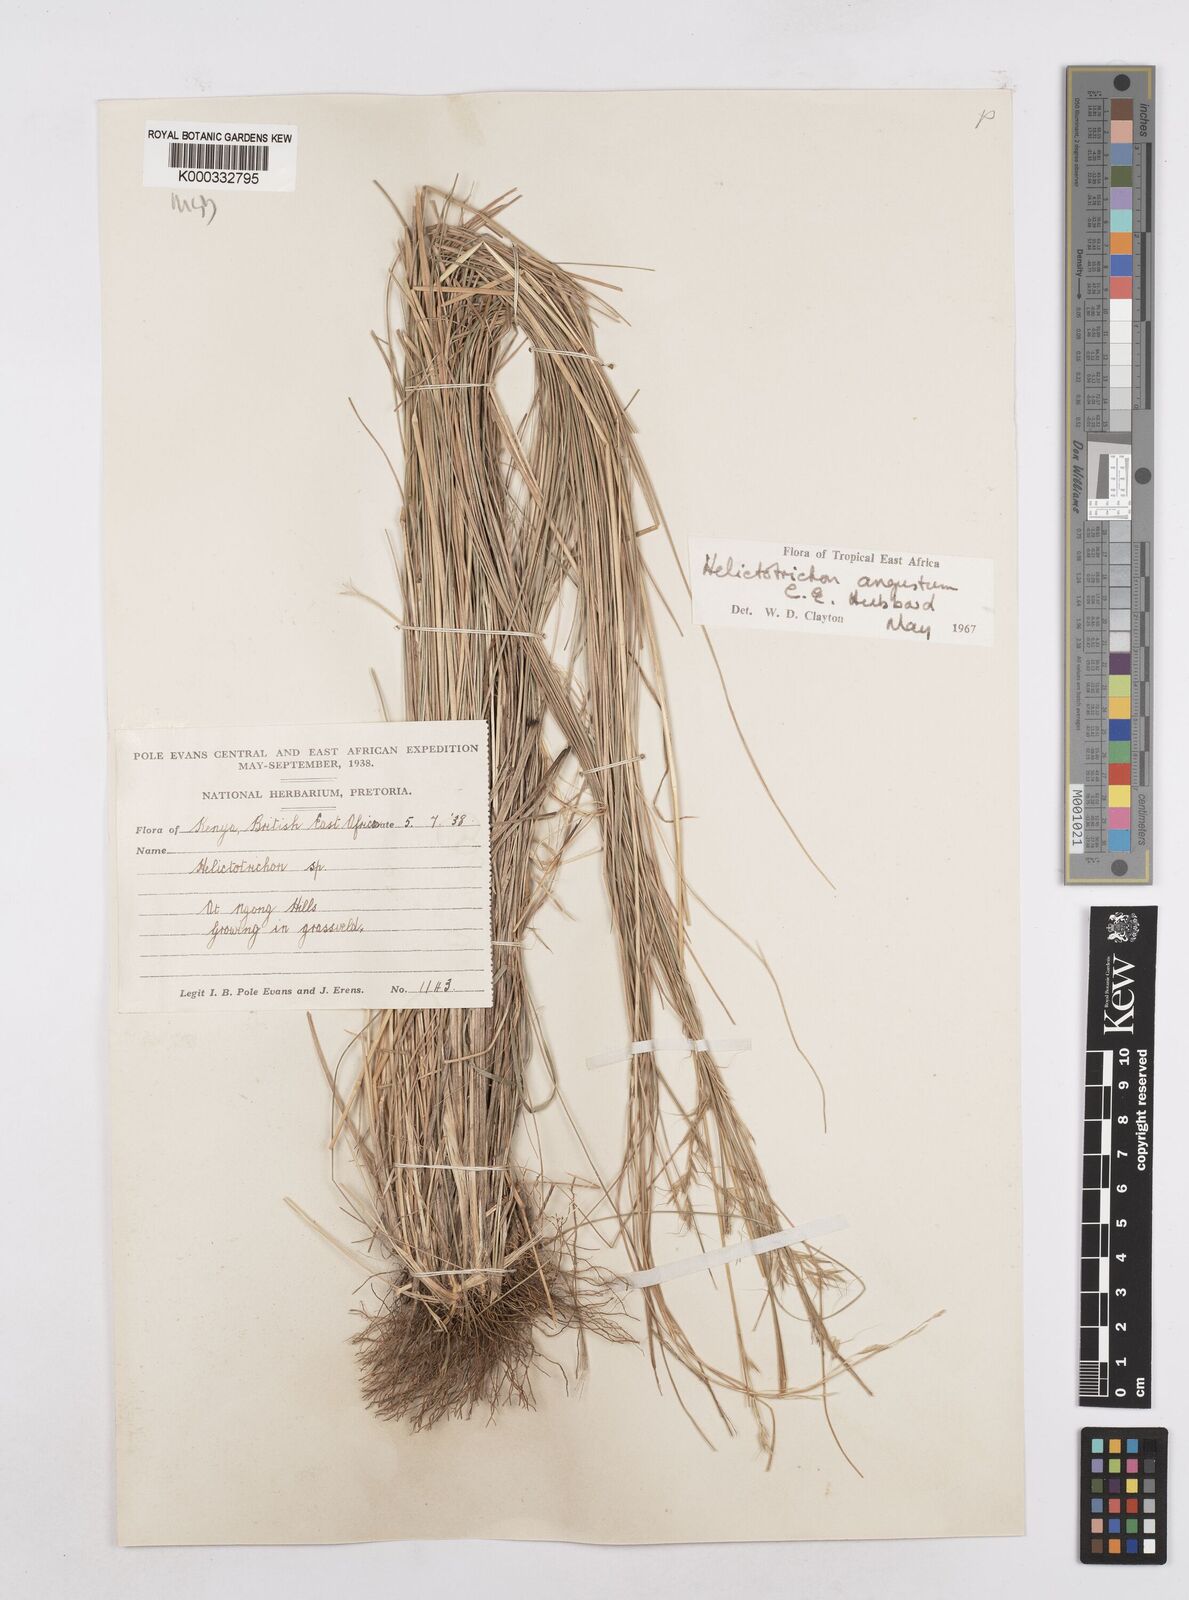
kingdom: Plantae
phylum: Tracheophyta
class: Liliopsida
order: Poales
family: Poaceae
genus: Trisetopsis
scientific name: Trisetopsis angusta
